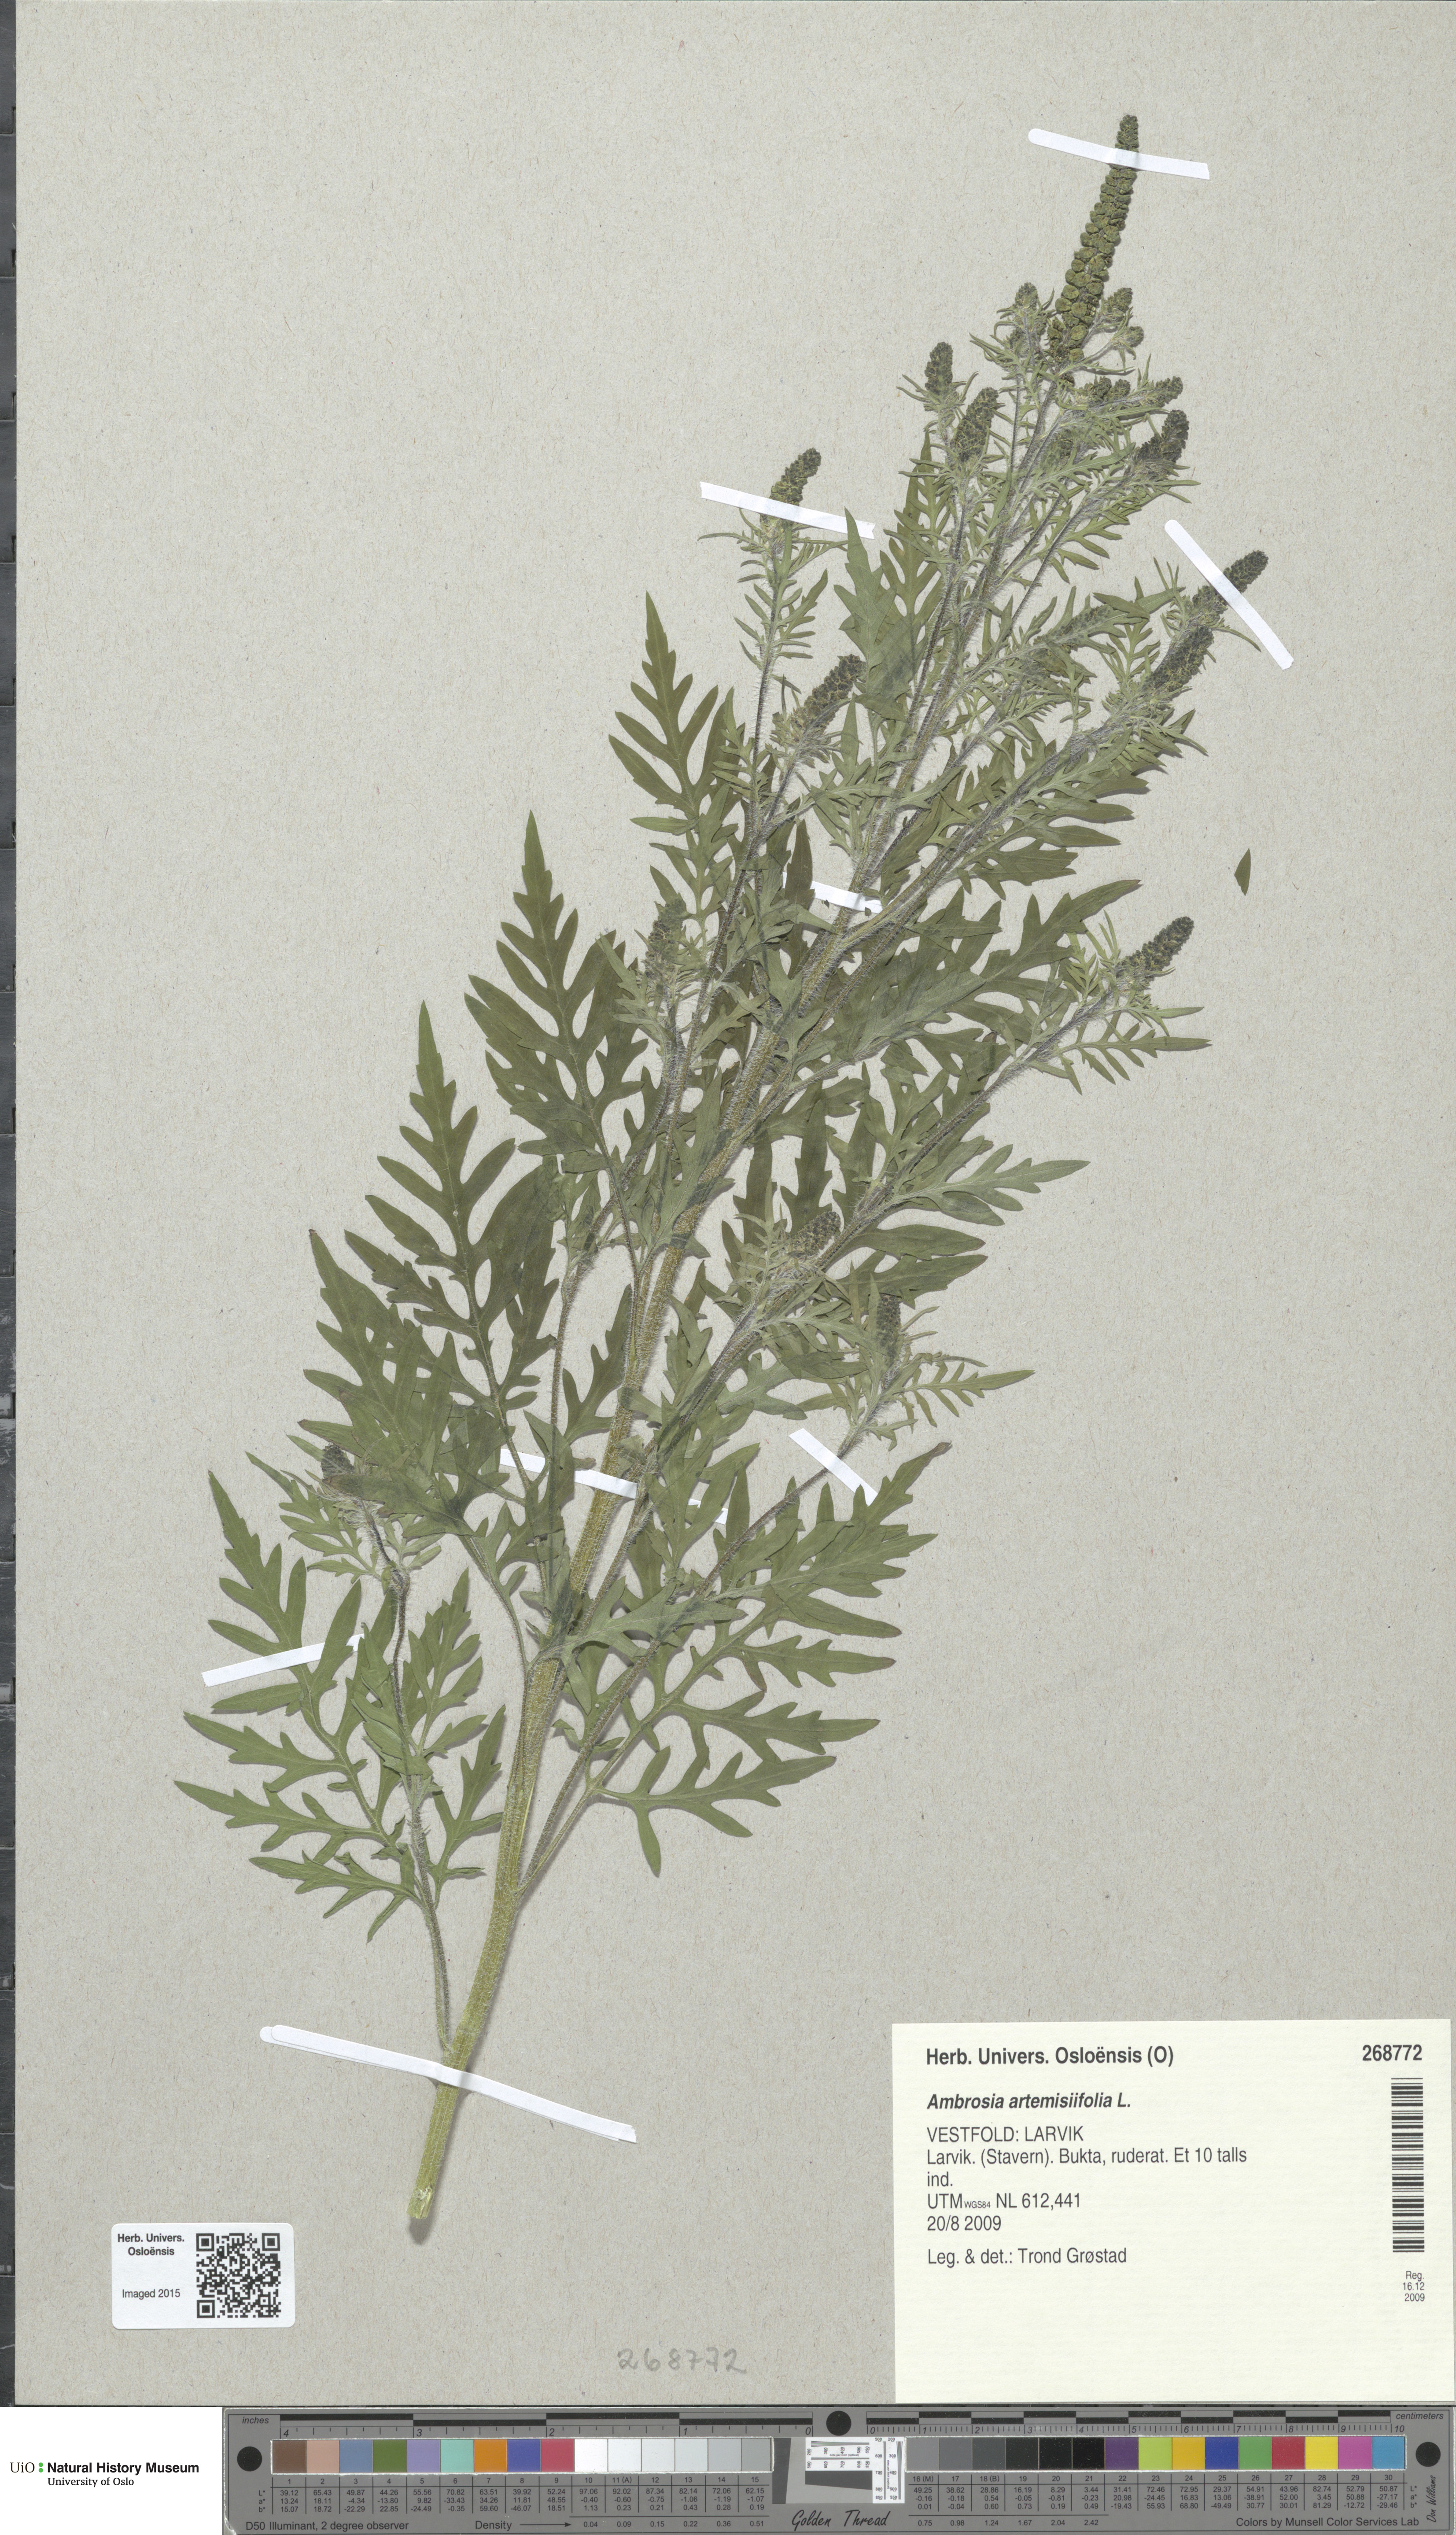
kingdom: Plantae
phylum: Tracheophyta
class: Magnoliopsida
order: Asterales
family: Asteraceae
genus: Ambrosia
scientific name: Ambrosia artemisiifolia
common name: Annual ragweed
